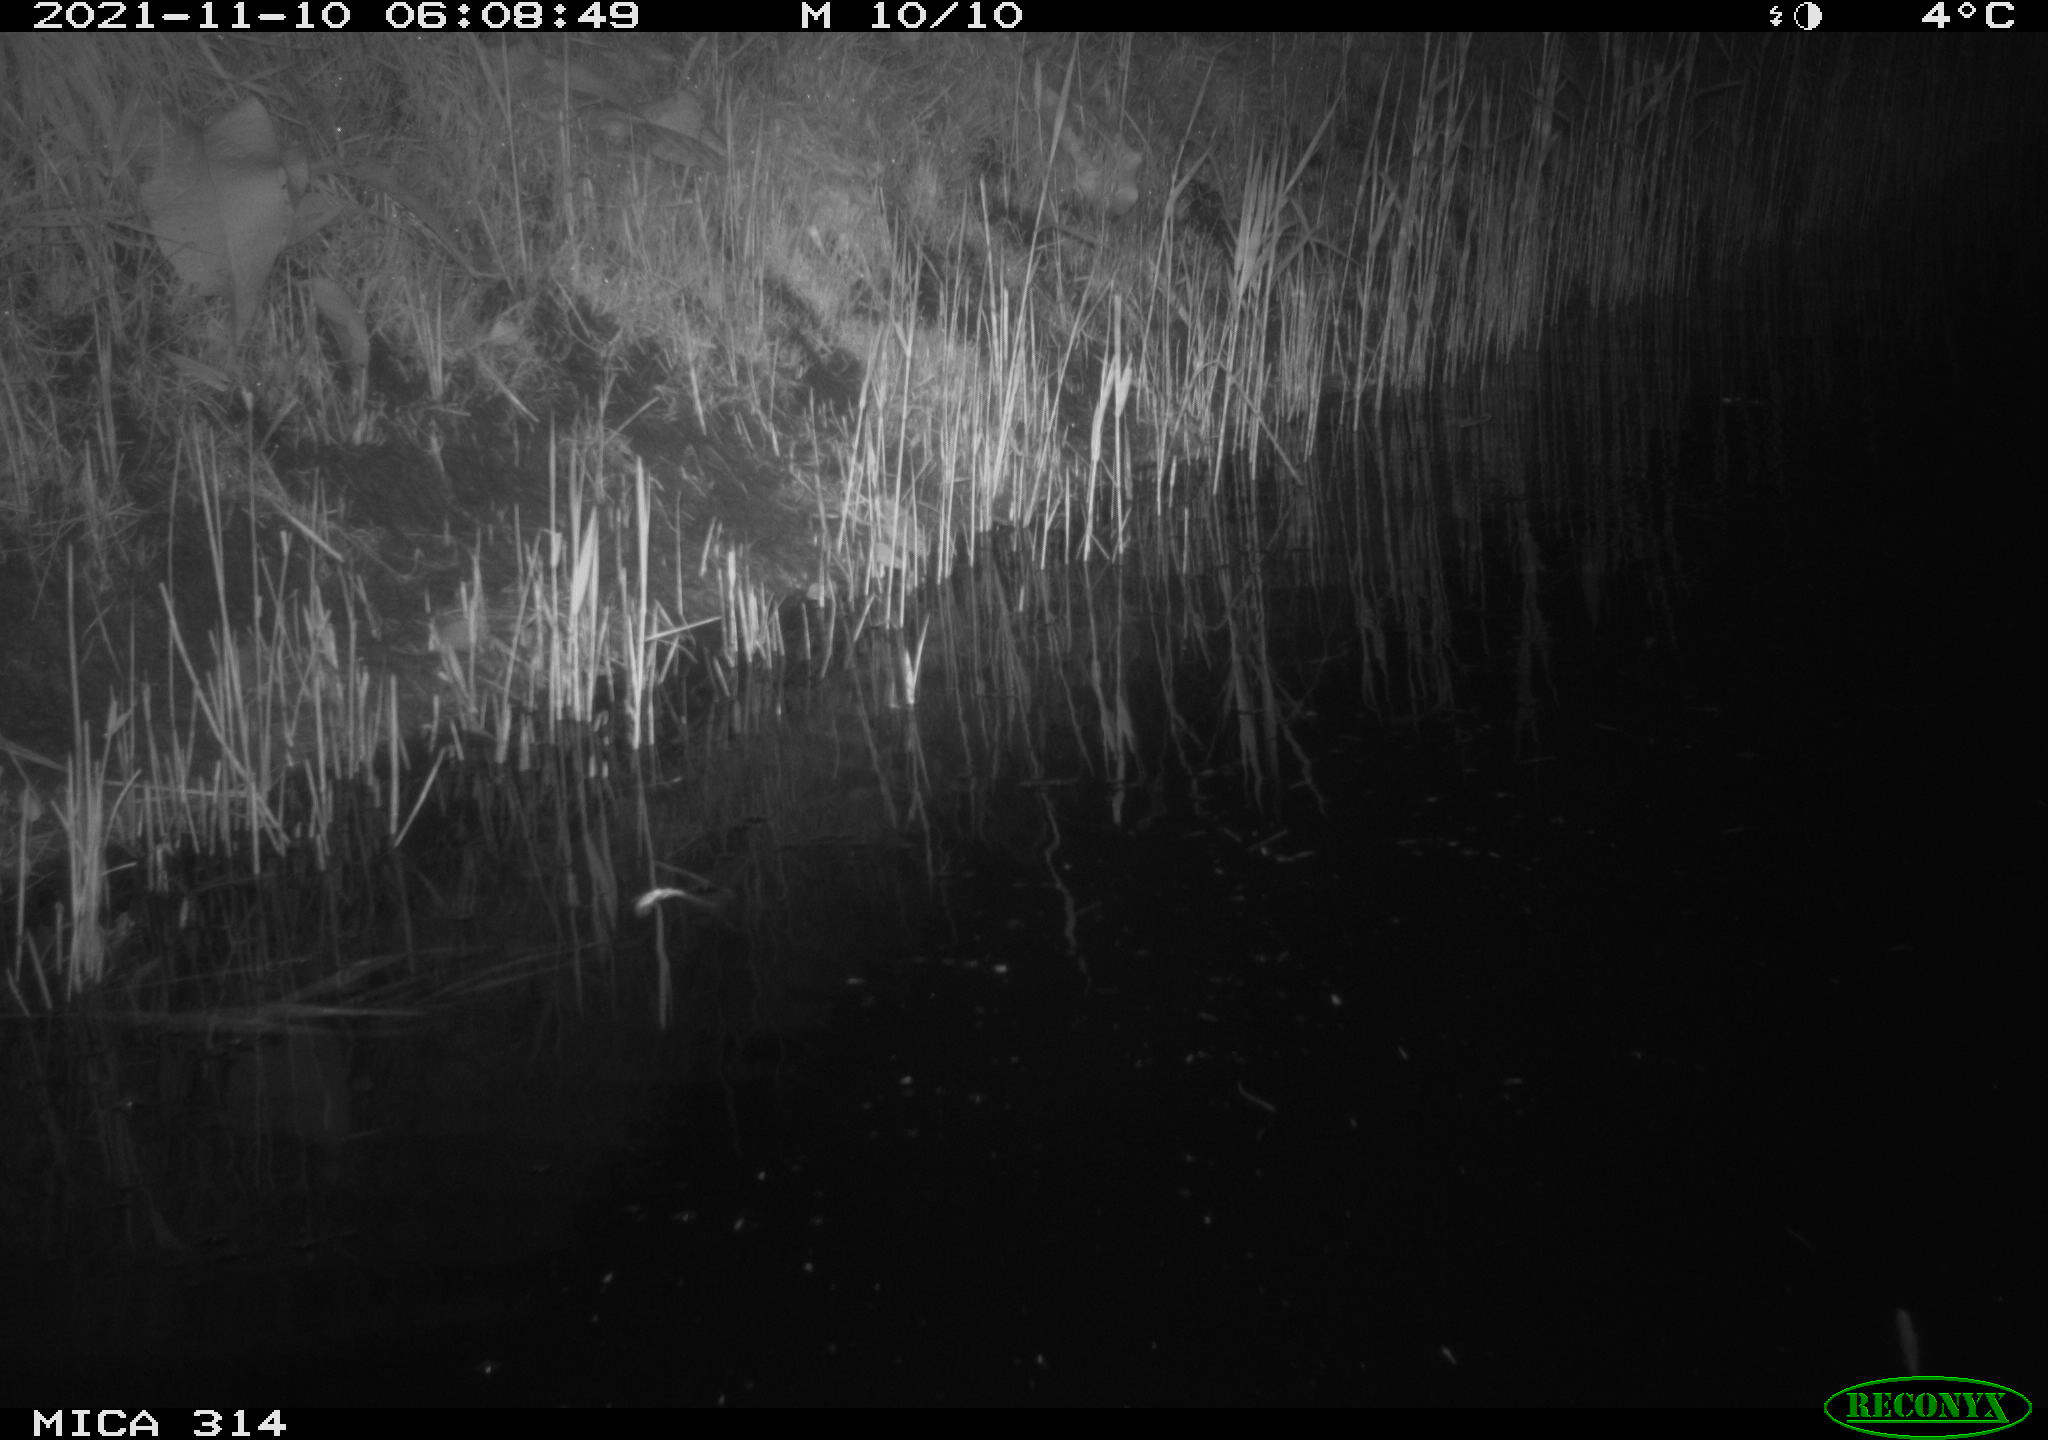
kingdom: Animalia
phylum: Chordata
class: Mammalia
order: Rodentia
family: Muridae
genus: Rattus
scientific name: Rattus norvegicus
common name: Brown rat
